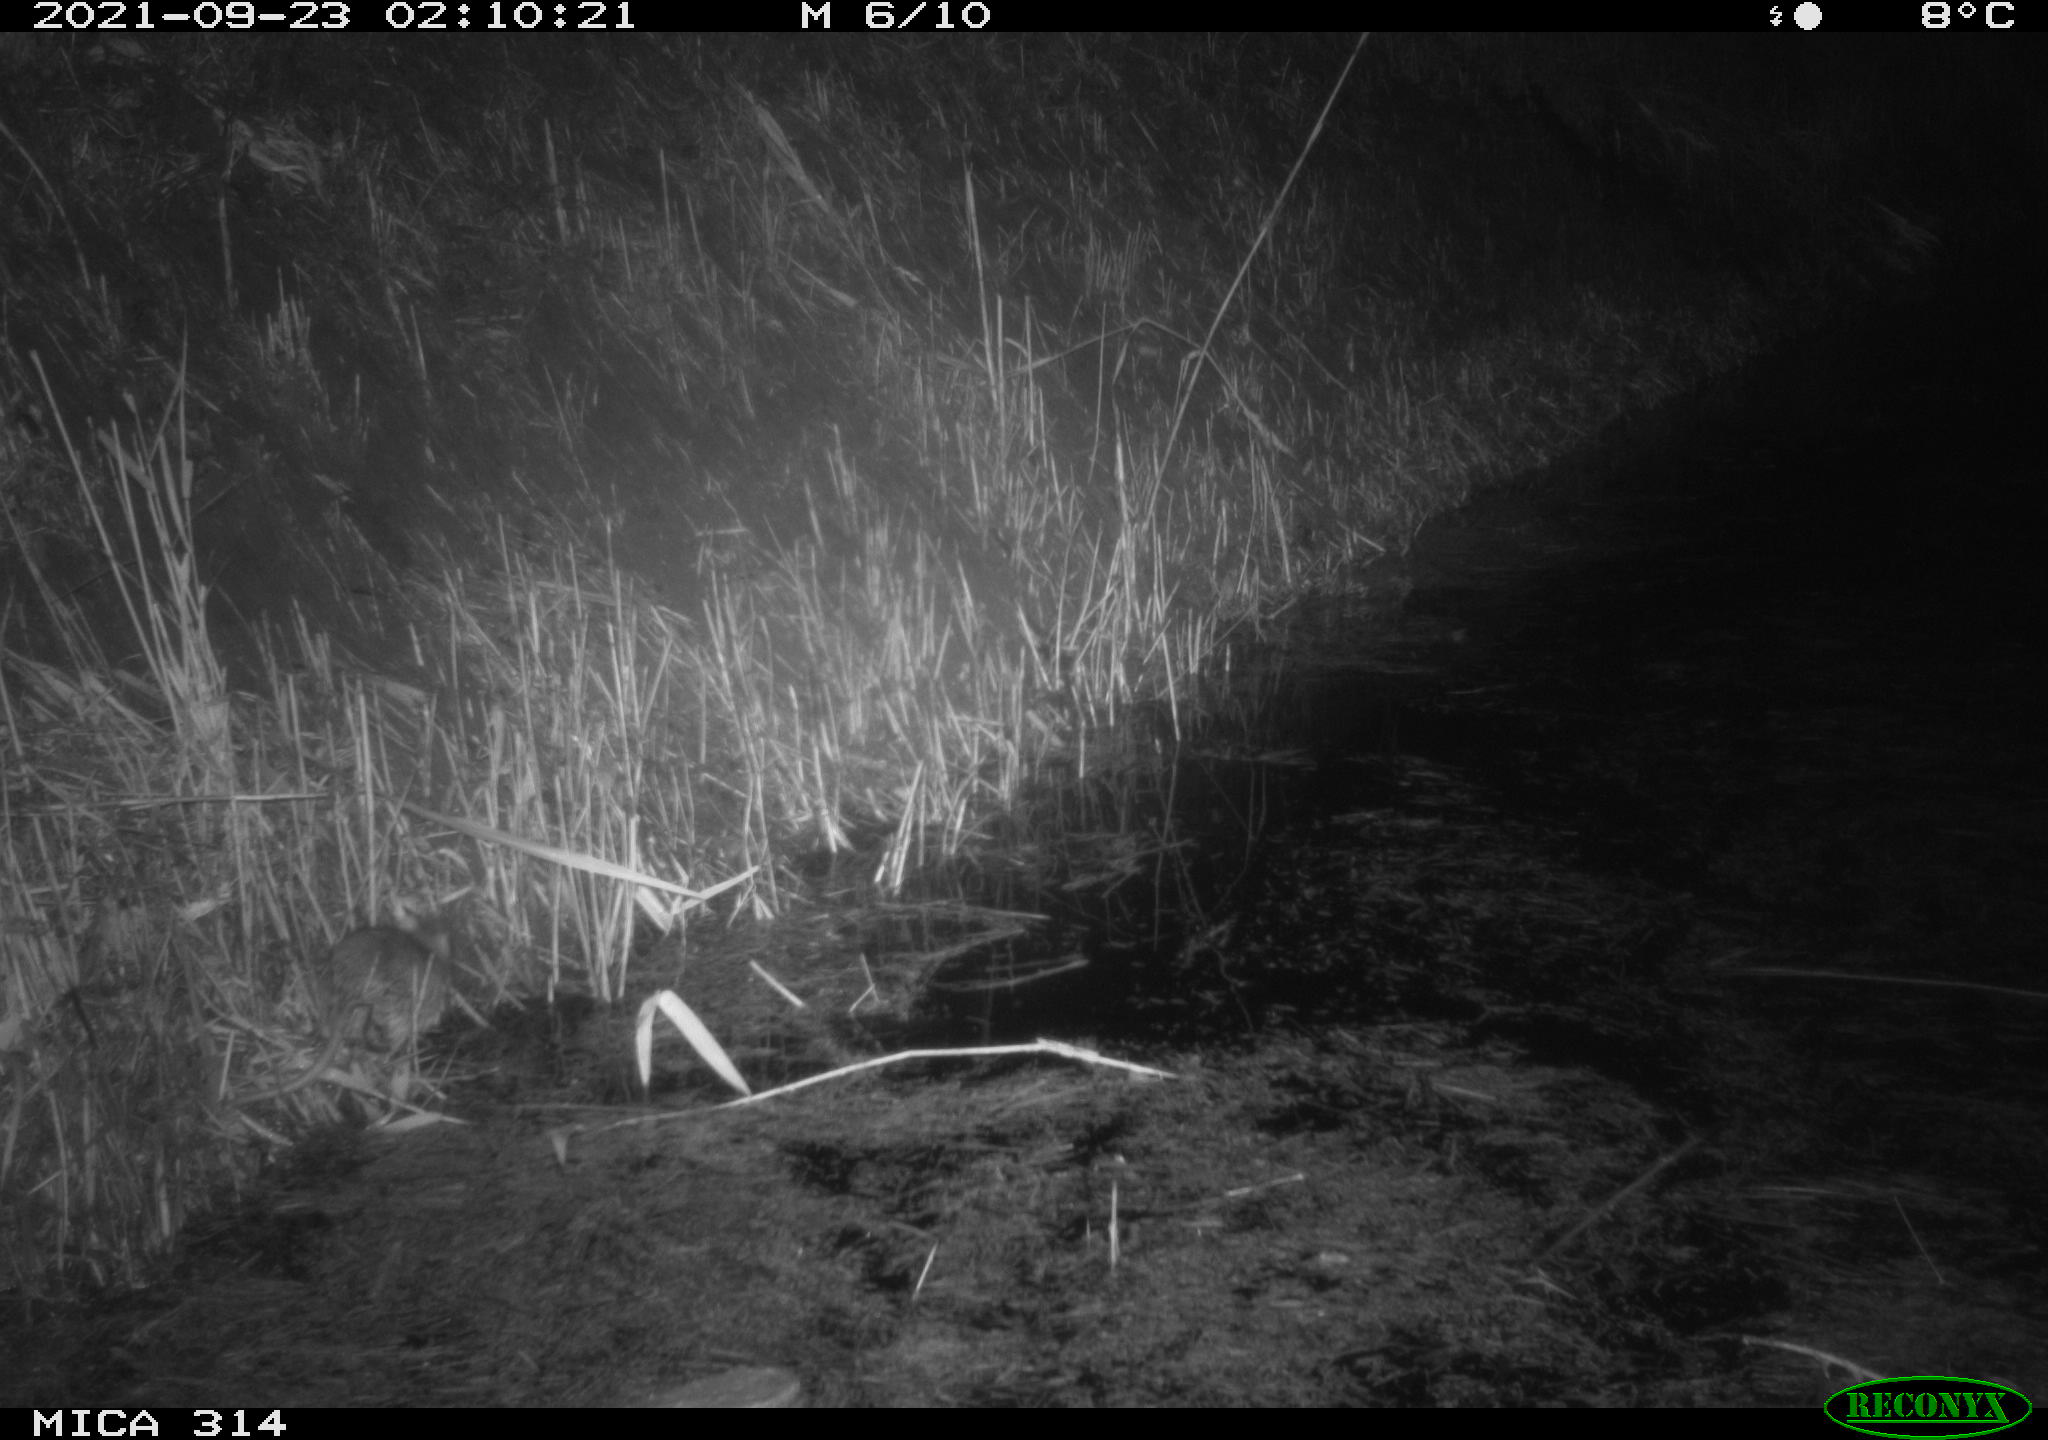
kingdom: Animalia
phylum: Chordata
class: Mammalia
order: Rodentia
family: Muridae
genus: Rattus
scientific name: Rattus norvegicus
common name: Brown rat
